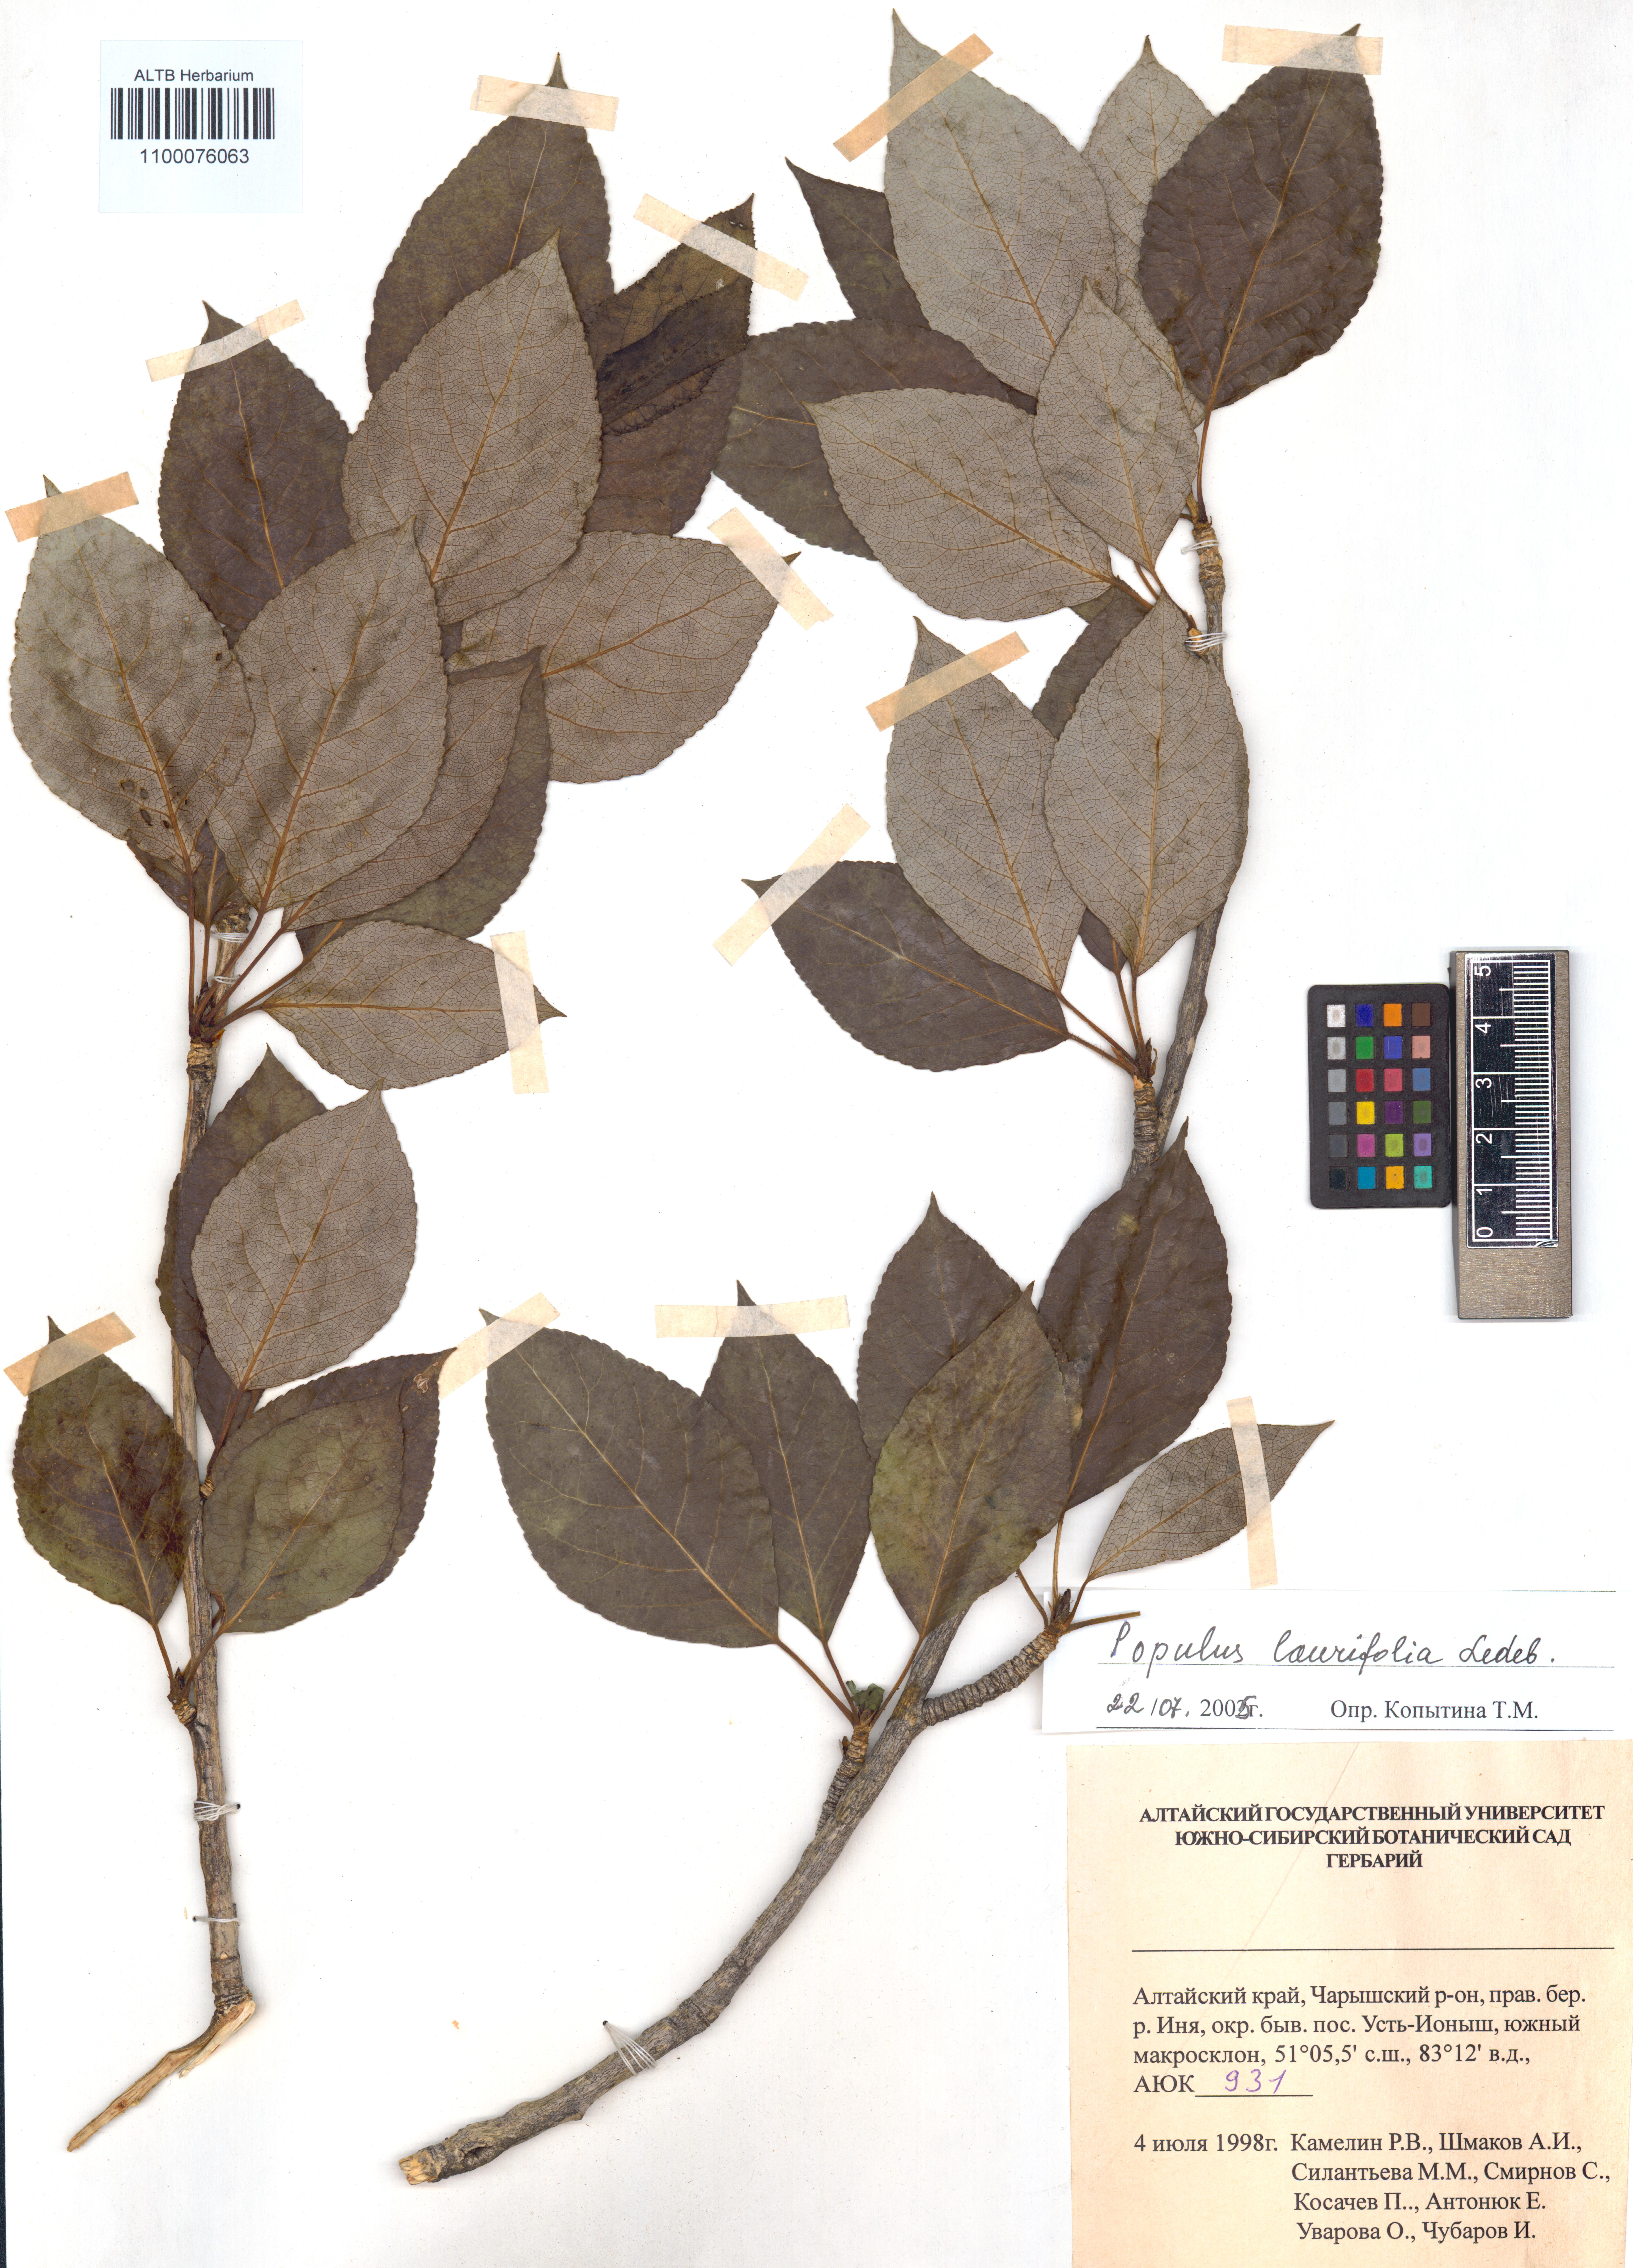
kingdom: Plantae
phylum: Tracheophyta
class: Magnoliopsida
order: Malpighiales
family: Salicaceae
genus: Populus
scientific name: Populus laurifolia
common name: Laurel-leaf poplar
